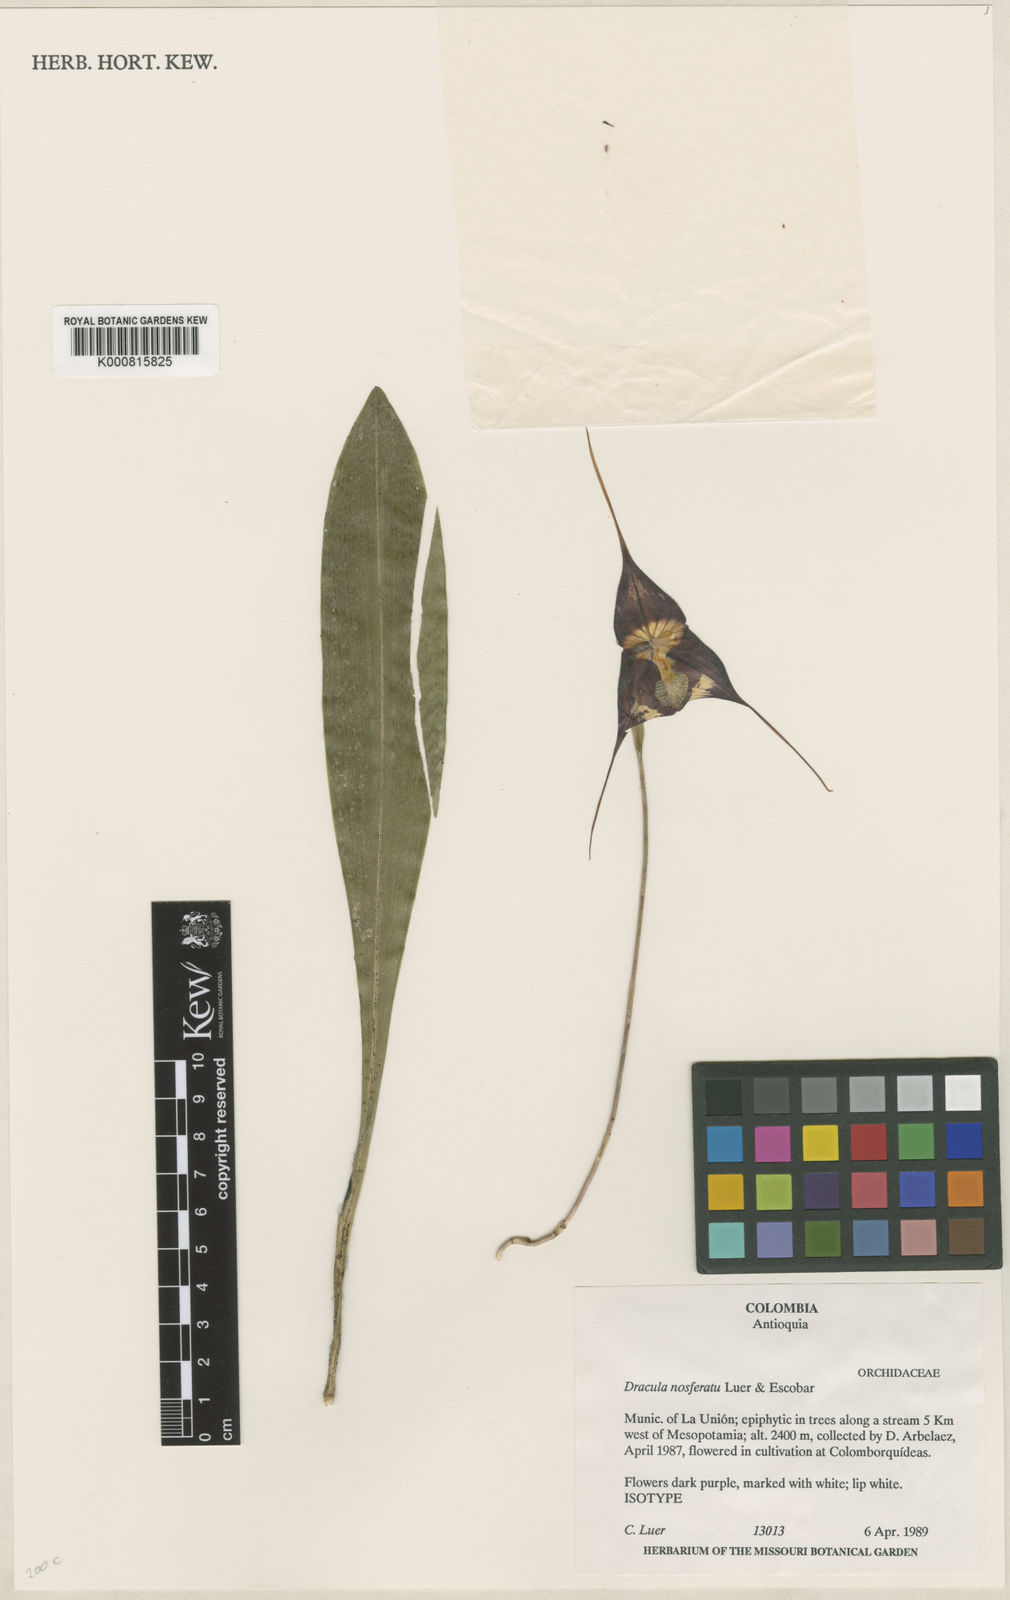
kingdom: Plantae
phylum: Tracheophyta
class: Liliopsida
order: Asparagales
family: Orchidaceae
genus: Dracula
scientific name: Dracula nosferatu
